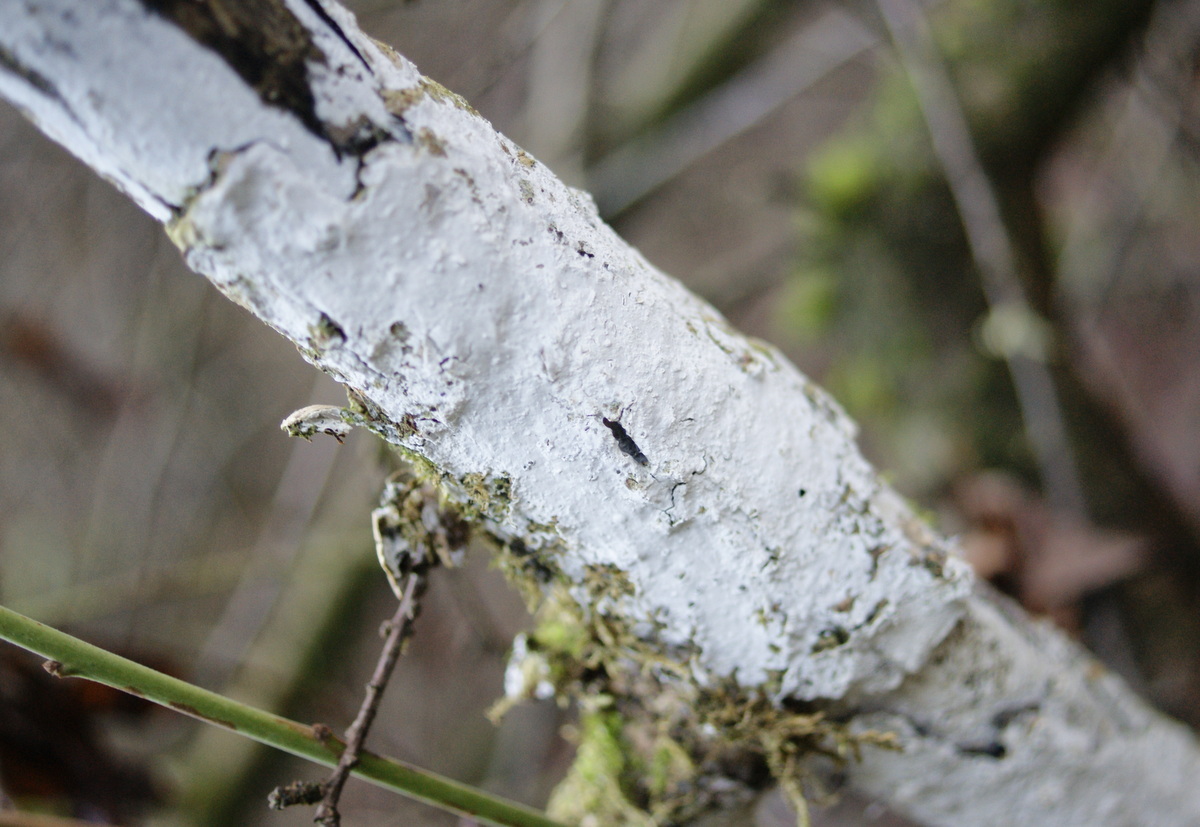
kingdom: Fungi
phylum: Basidiomycota
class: Agaricomycetes
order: Corticiales
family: Corticiaceae
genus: Lyomyces
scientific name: Lyomyces sambuci
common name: almindelig hyldehinde
